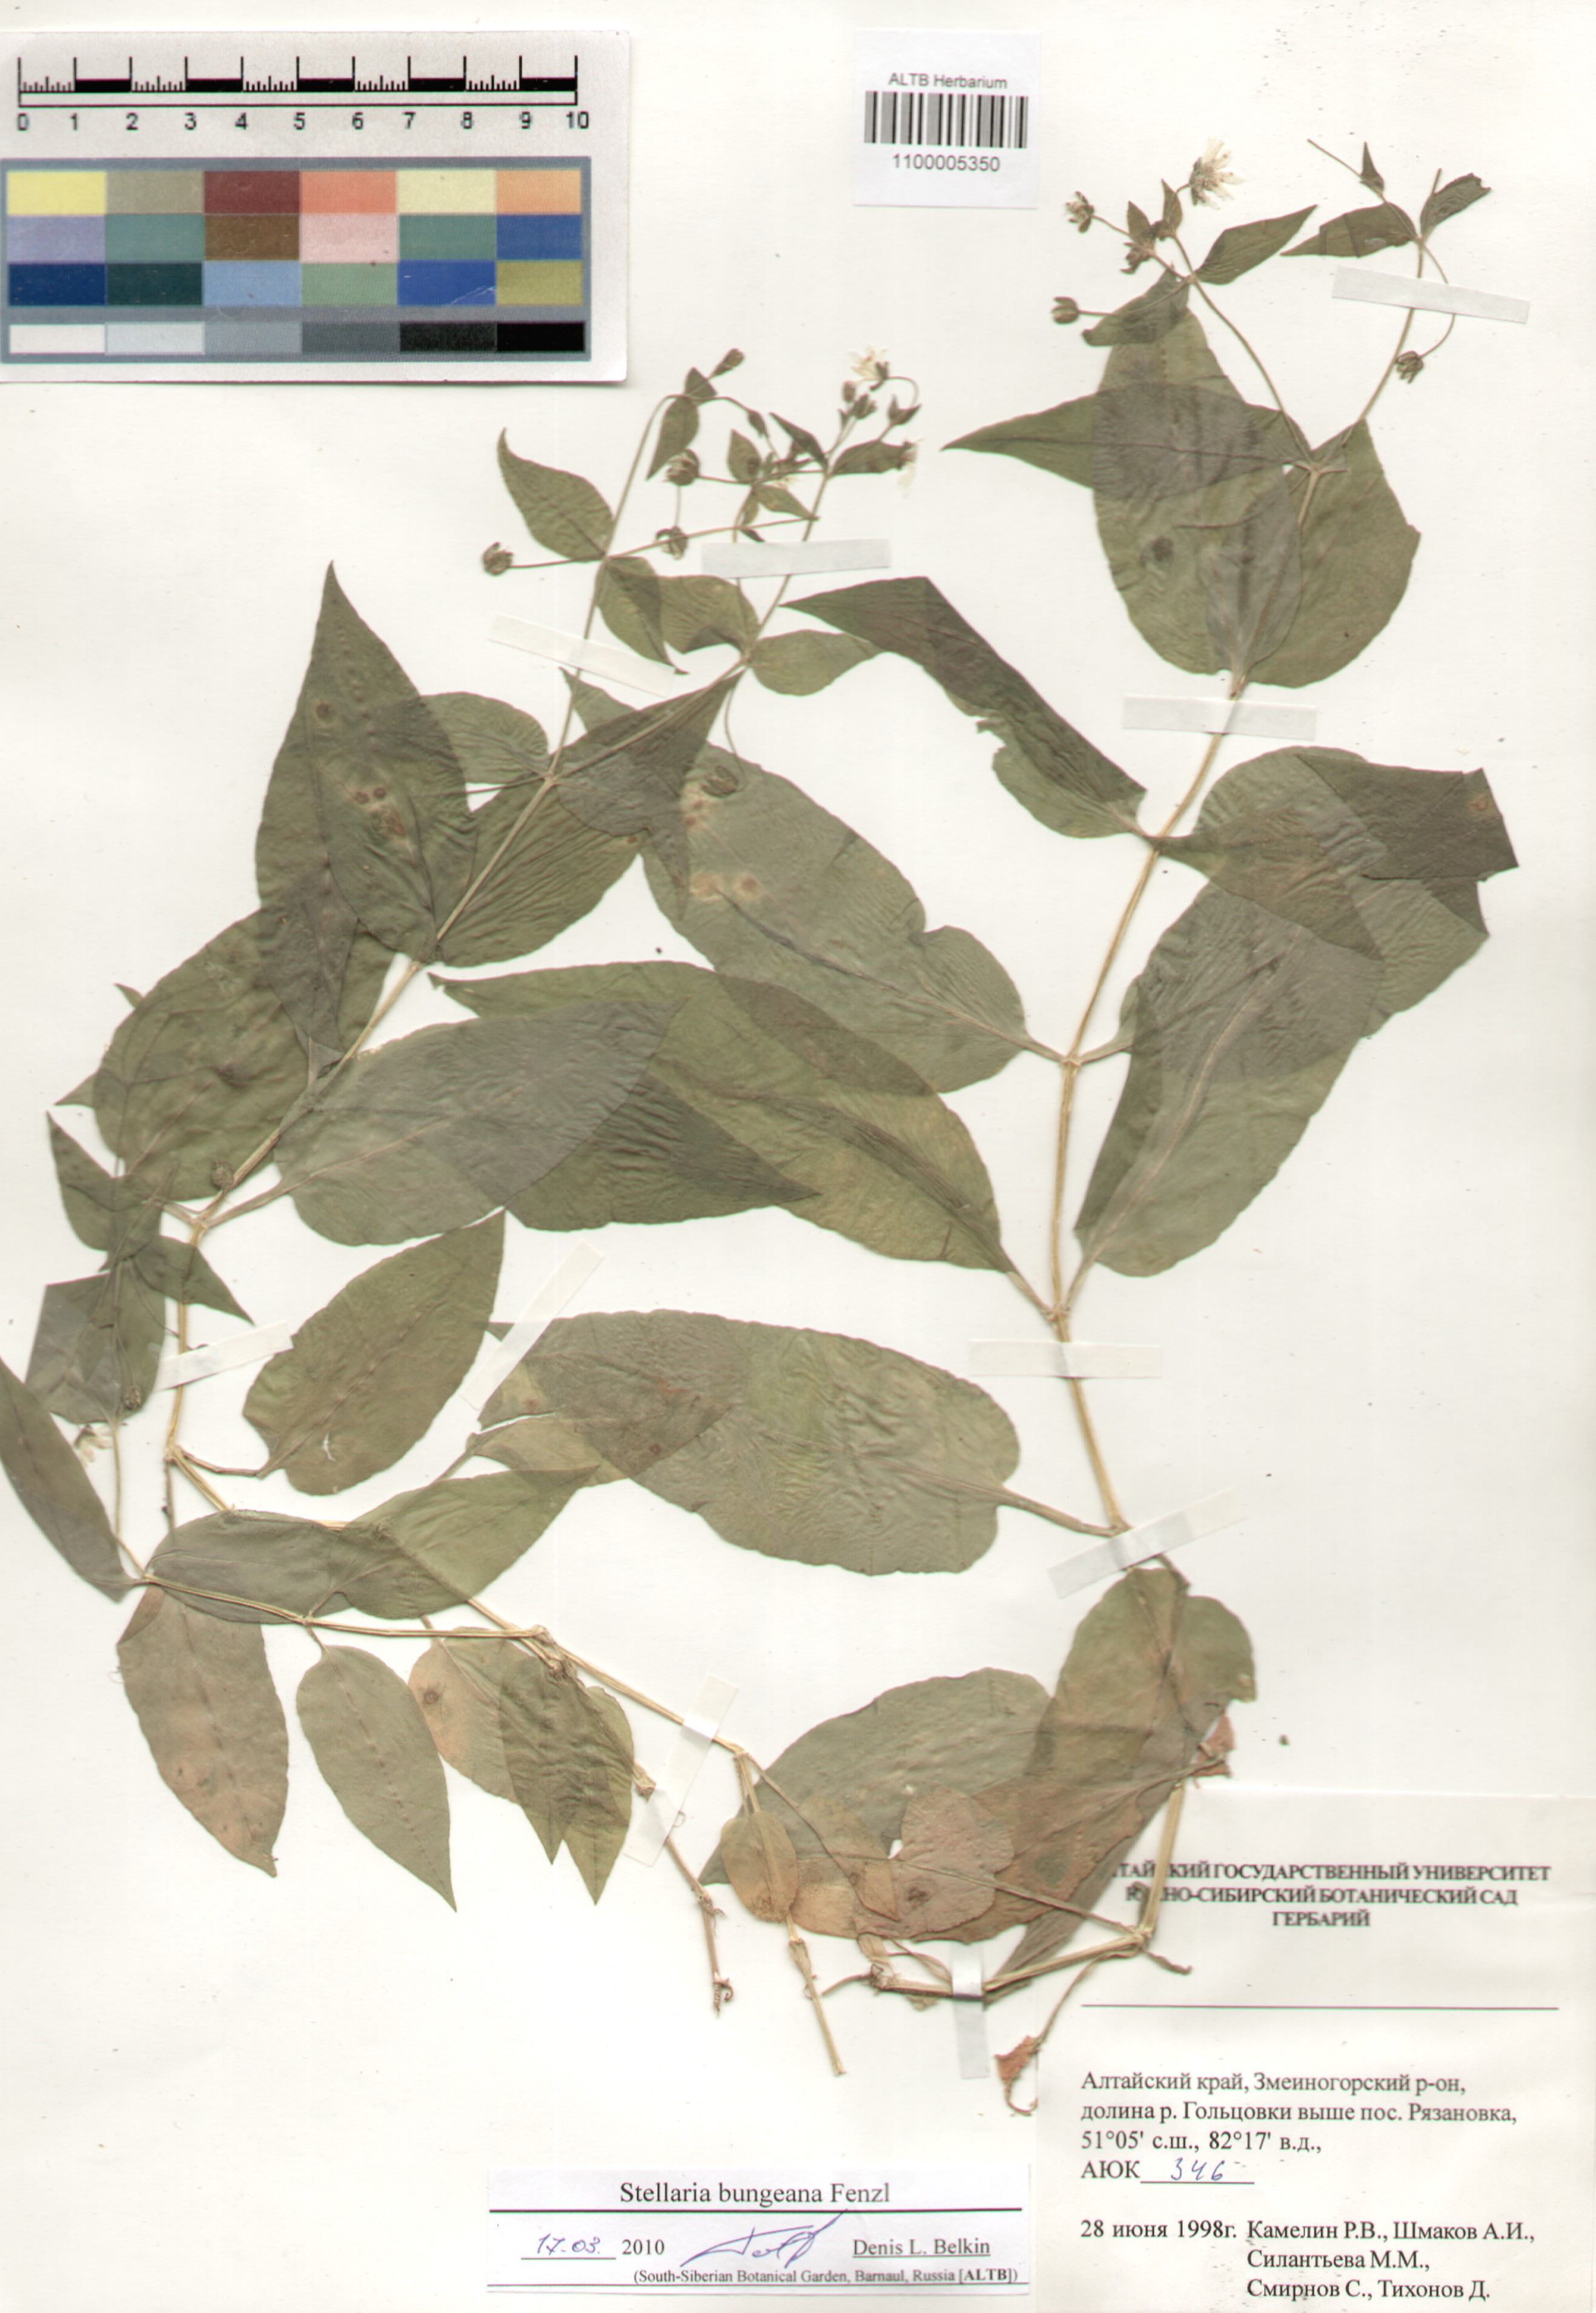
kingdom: Plantae
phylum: Tracheophyta
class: Magnoliopsida
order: Caryophyllales
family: Caryophyllaceae
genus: Stellaria
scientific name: Stellaria bungeana
